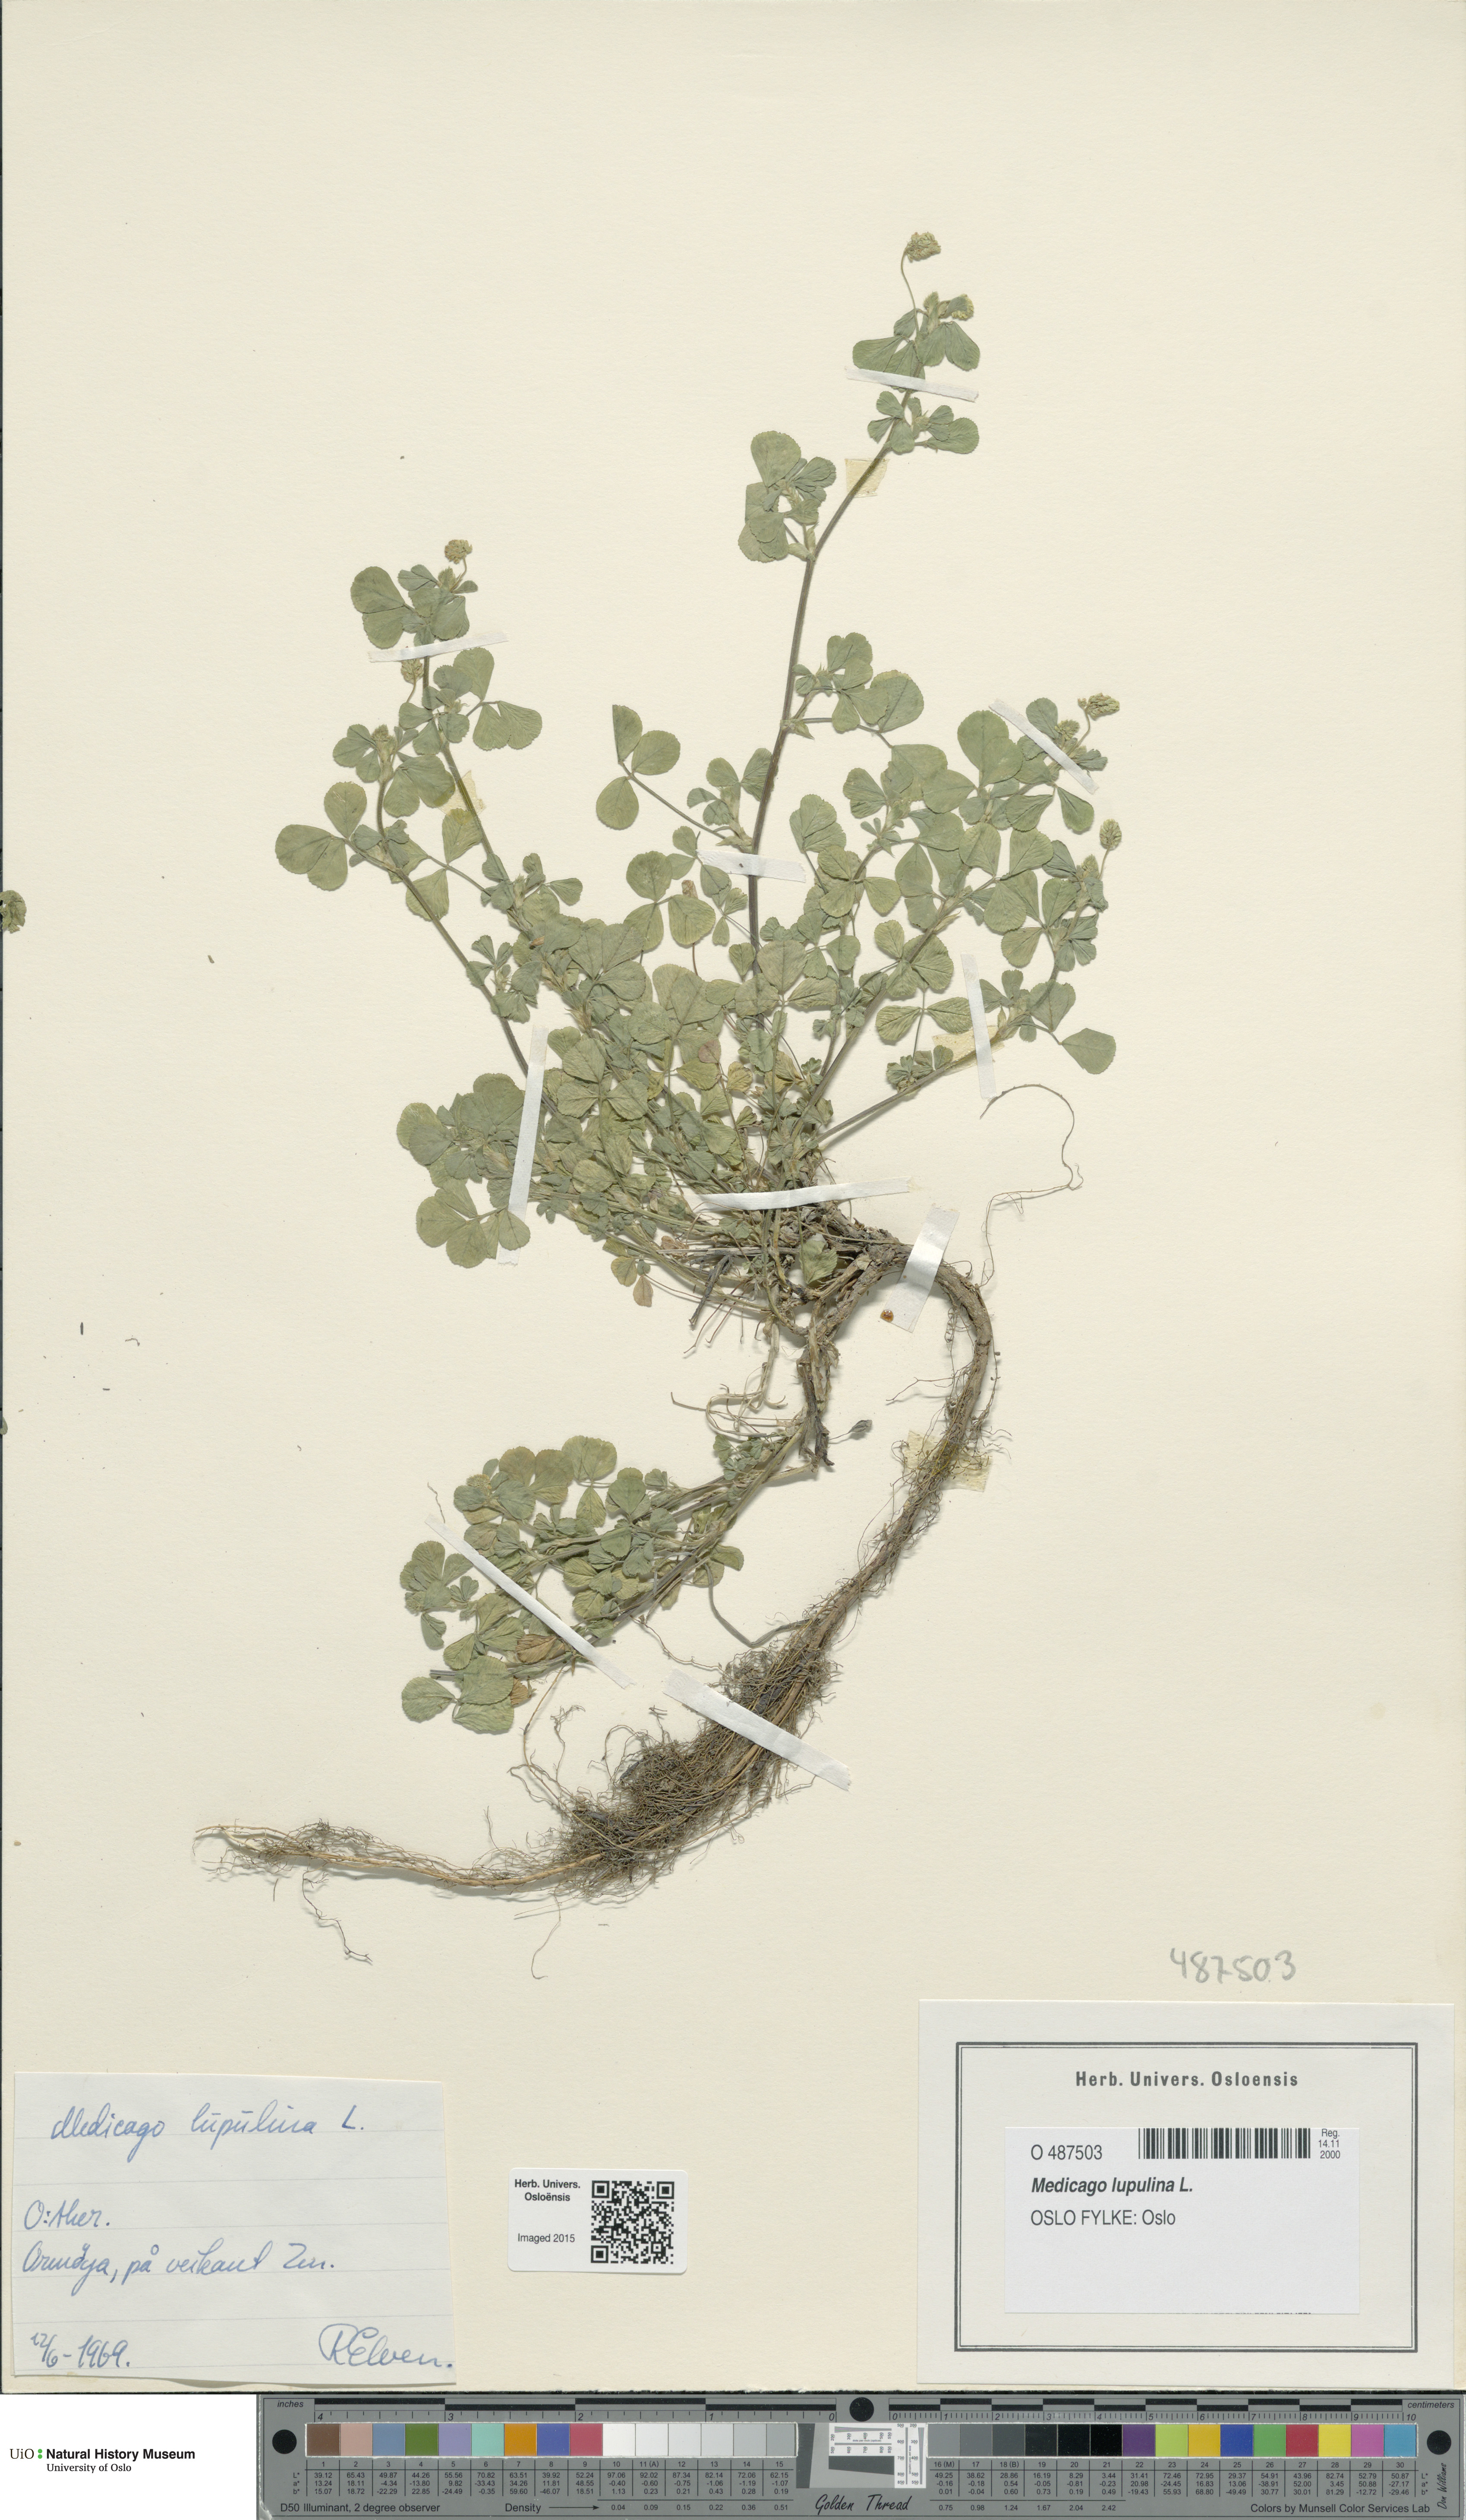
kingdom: Plantae
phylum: Tracheophyta
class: Magnoliopsida
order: Fabales
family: Fabaceae
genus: Medicago
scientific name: Medicago lupulina
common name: Black medick
